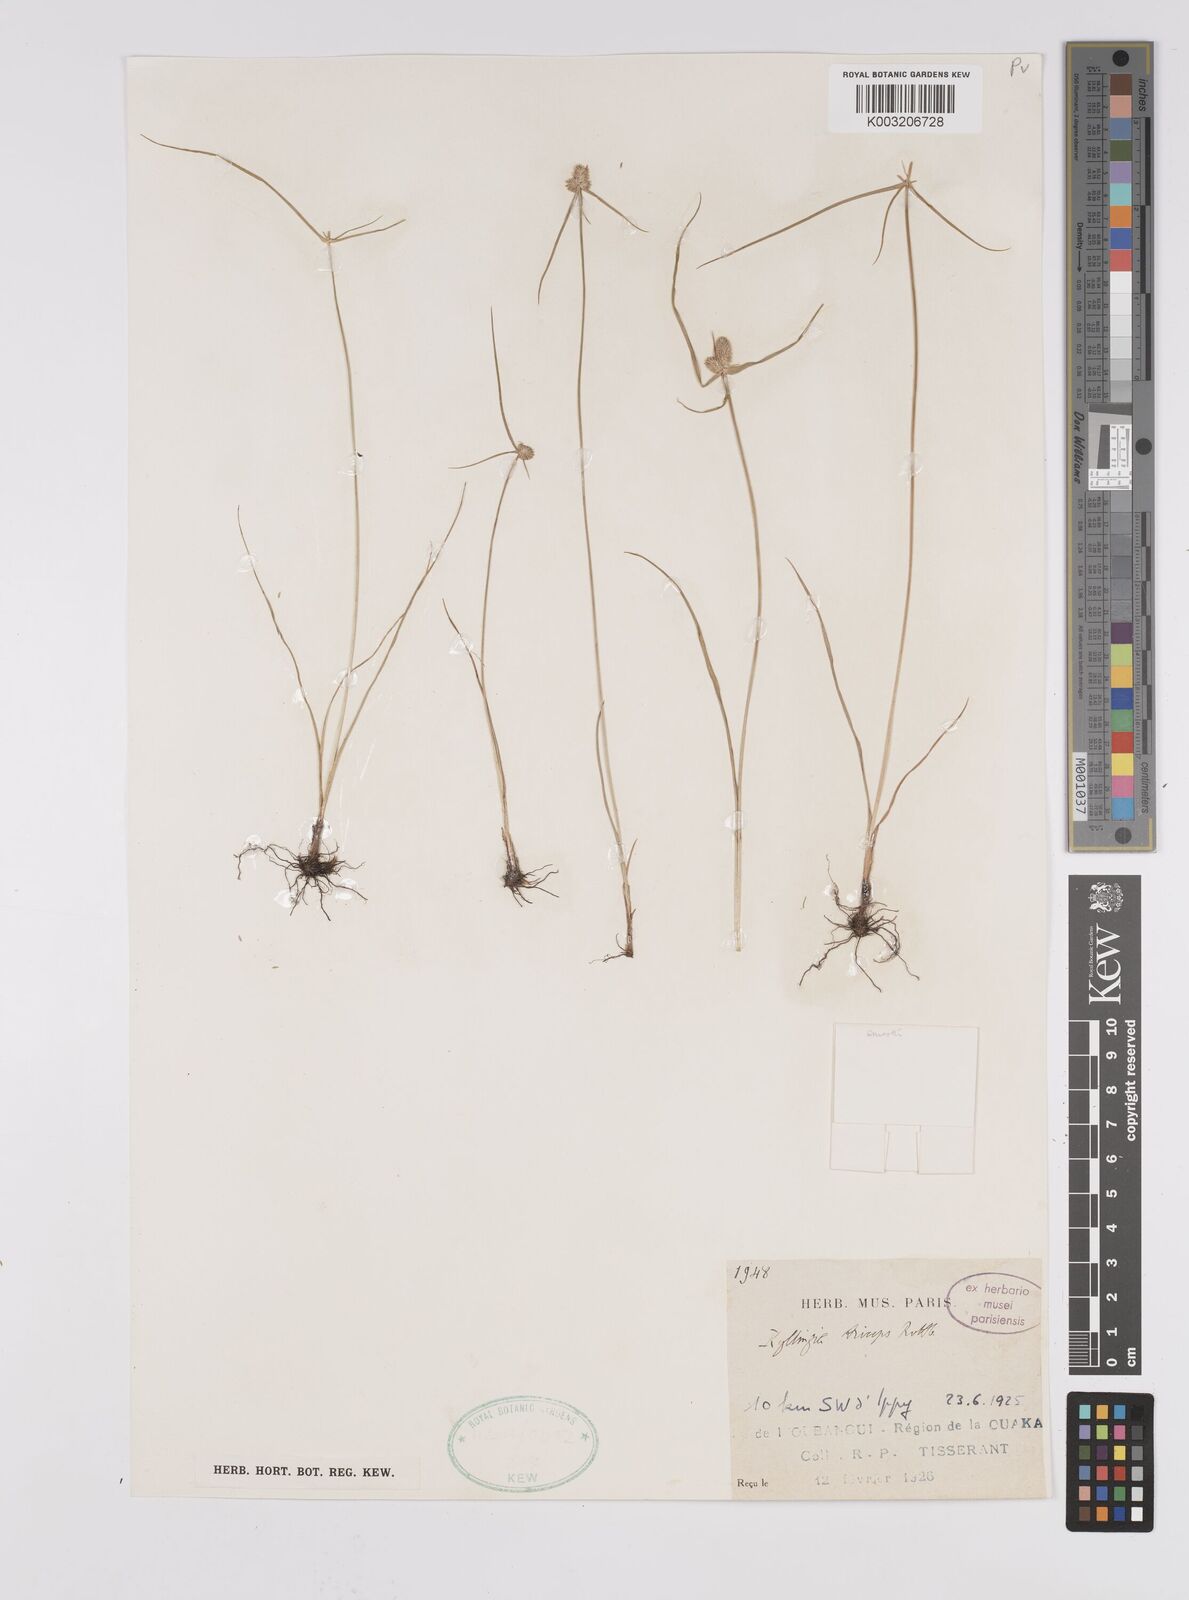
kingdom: Plantae
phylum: Tracheophyta
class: Liliopsida
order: Poales
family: Cyperaceae
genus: Cyperus
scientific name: Cyperus
